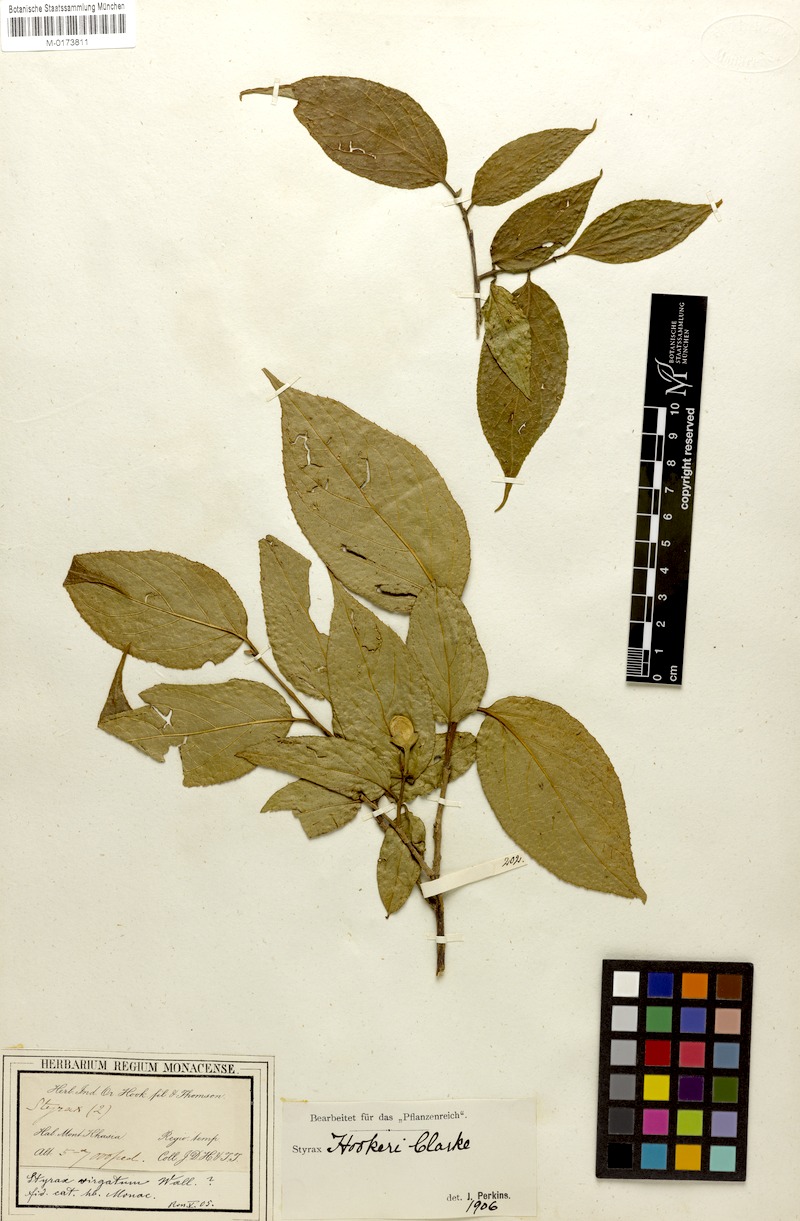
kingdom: Plantae
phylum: Tracheophyta
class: Magnoliopsida
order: Ericales
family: Styracaceae
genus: Styrax
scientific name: Styrax hookeri
